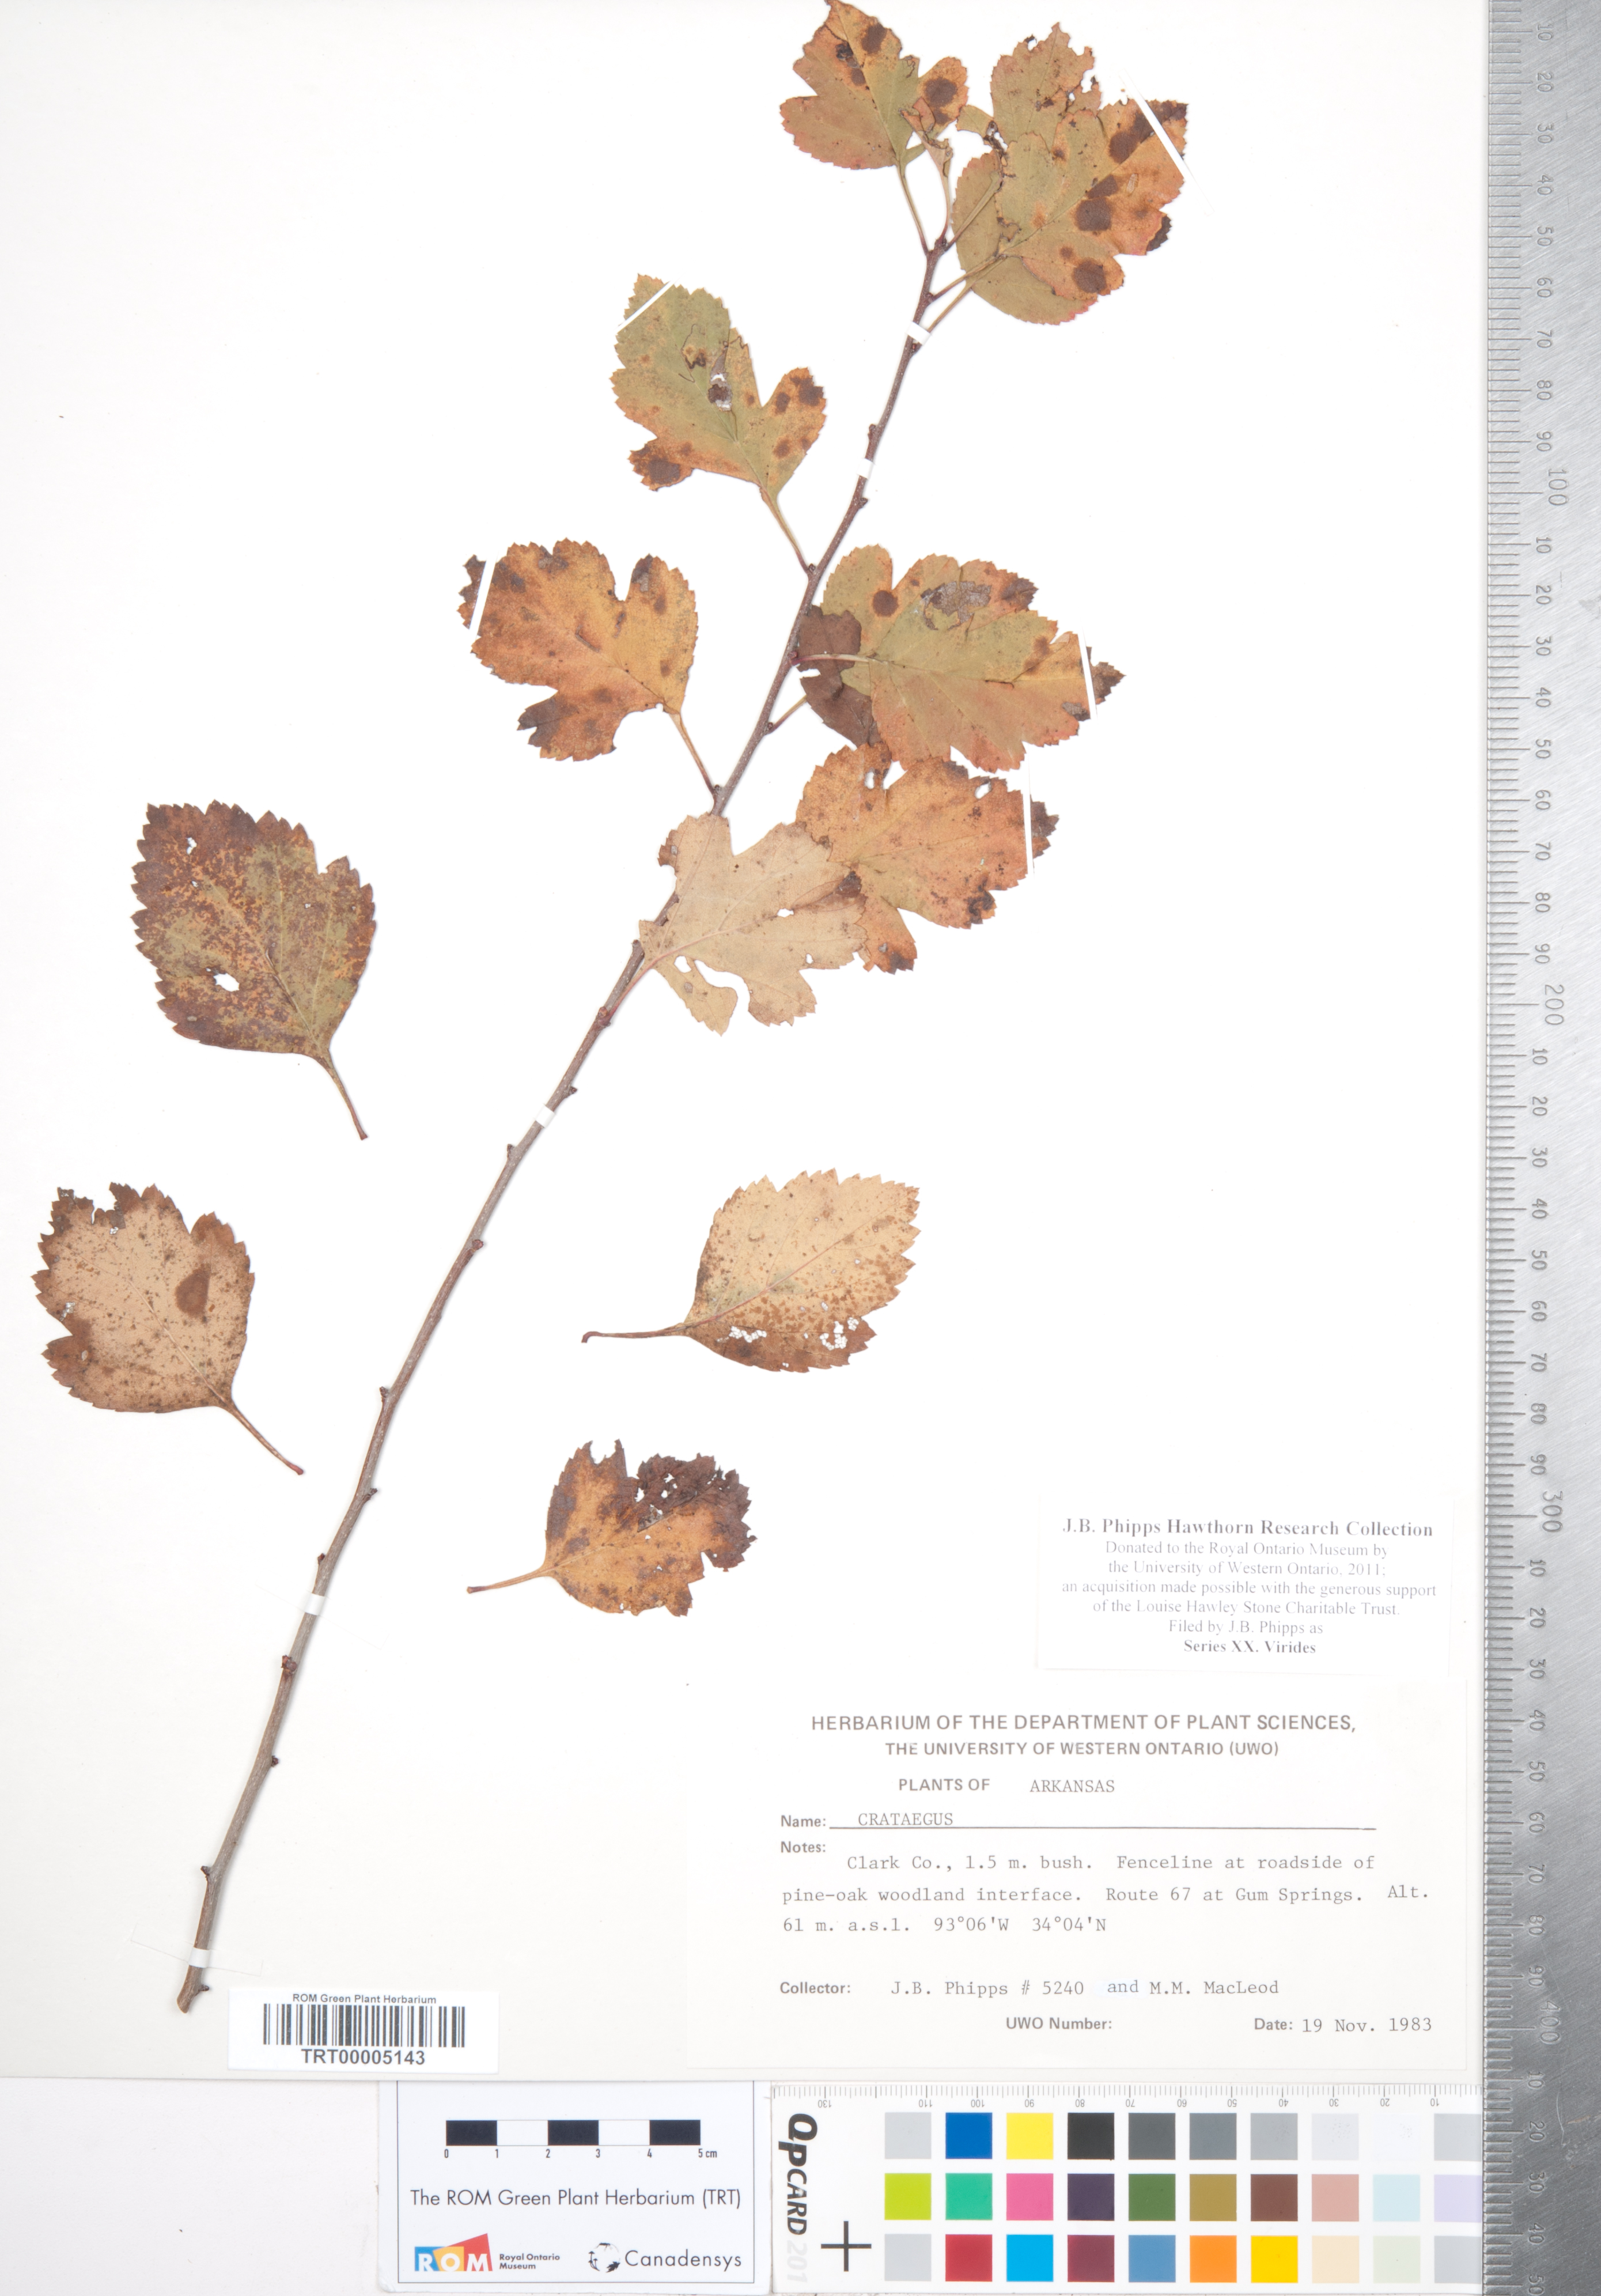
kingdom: Plantae
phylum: Tracheophyta
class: Magnoliopsida
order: Rosales
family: Rosaceae
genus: Crataegus
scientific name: Crataegus nitida
